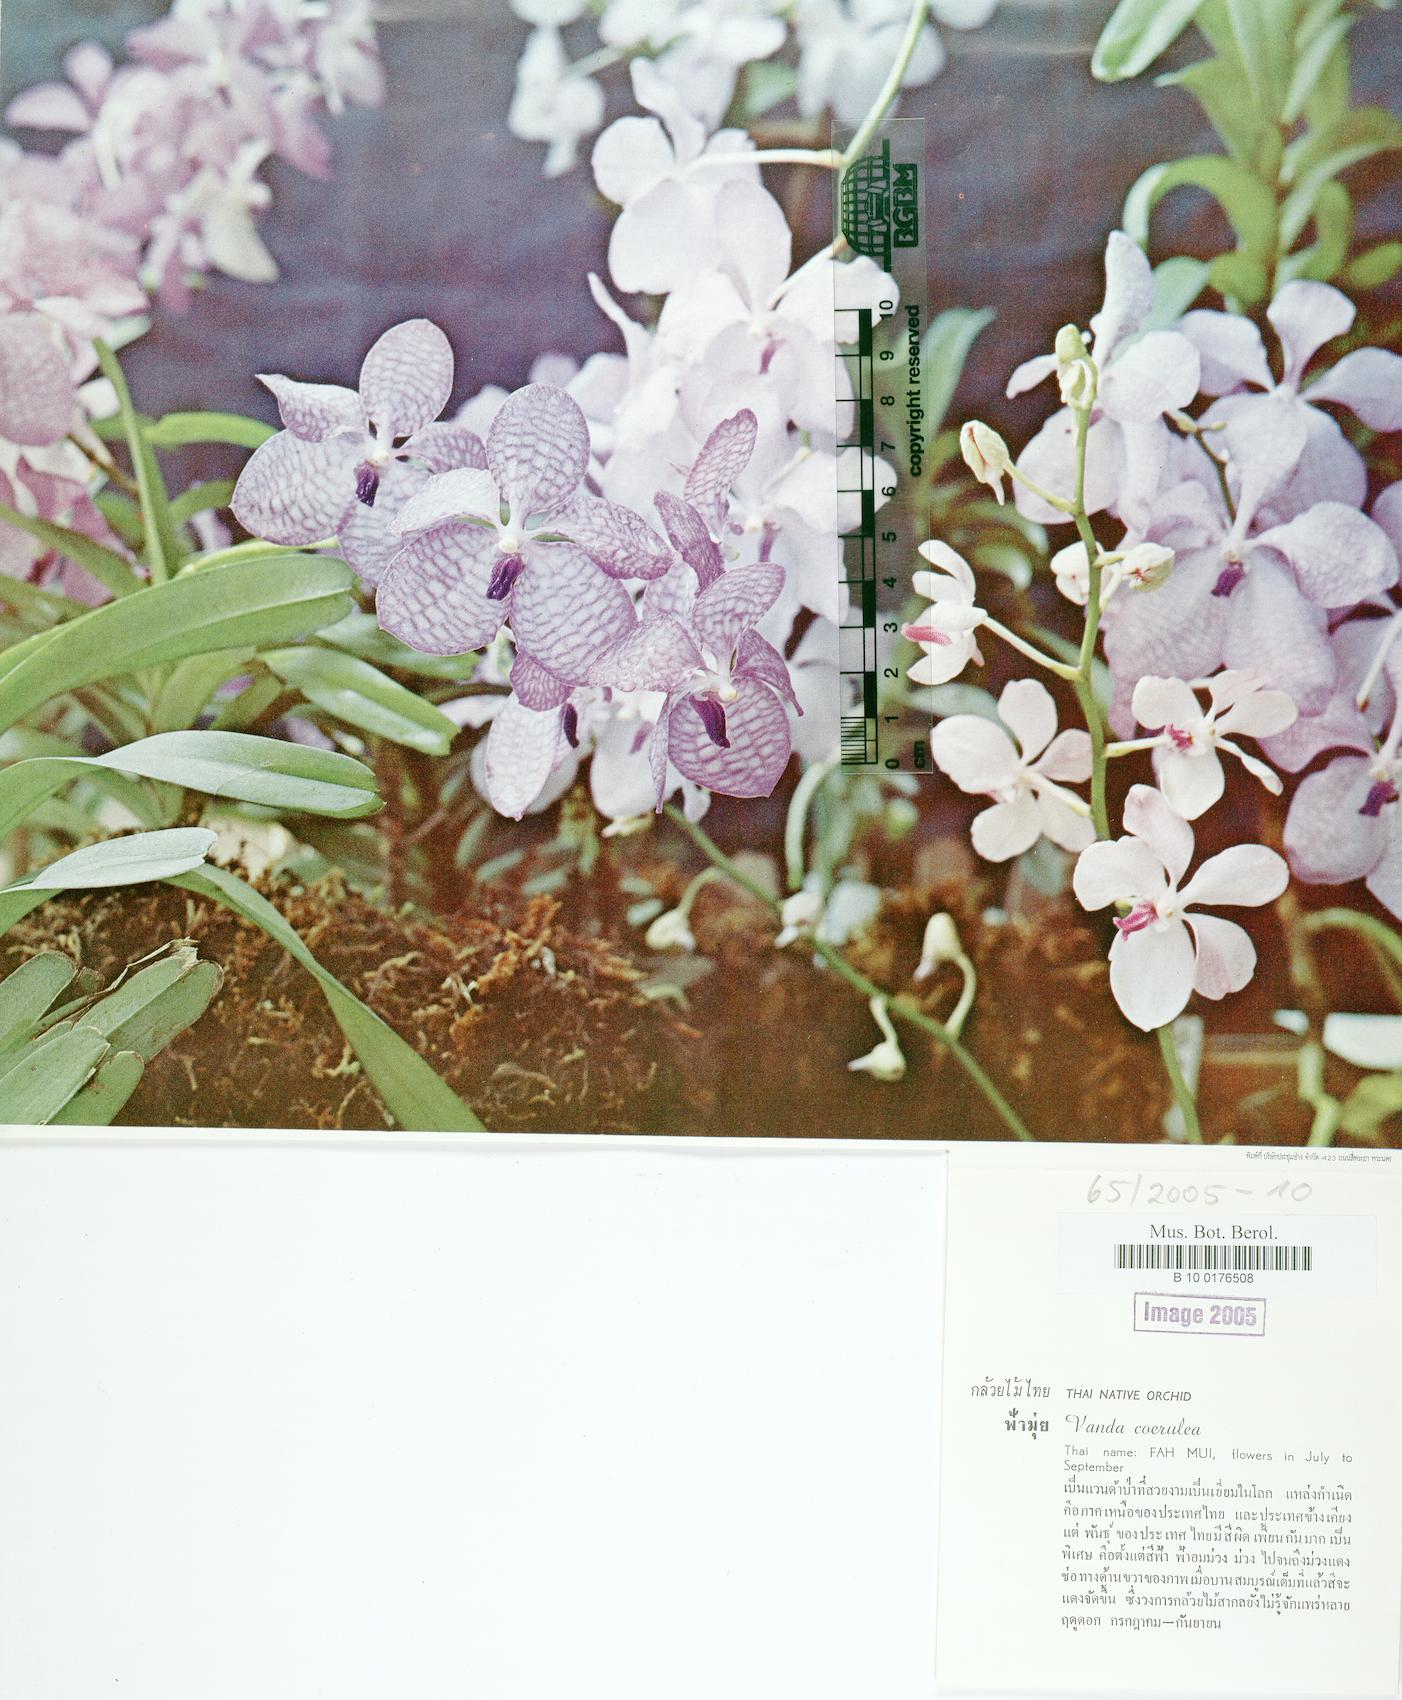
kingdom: Plantae
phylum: Tracheophyta
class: Liliopsida
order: Asparagales
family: Orchidaceae
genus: Vanda
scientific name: Vanda coerulea
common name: Blue orchid
